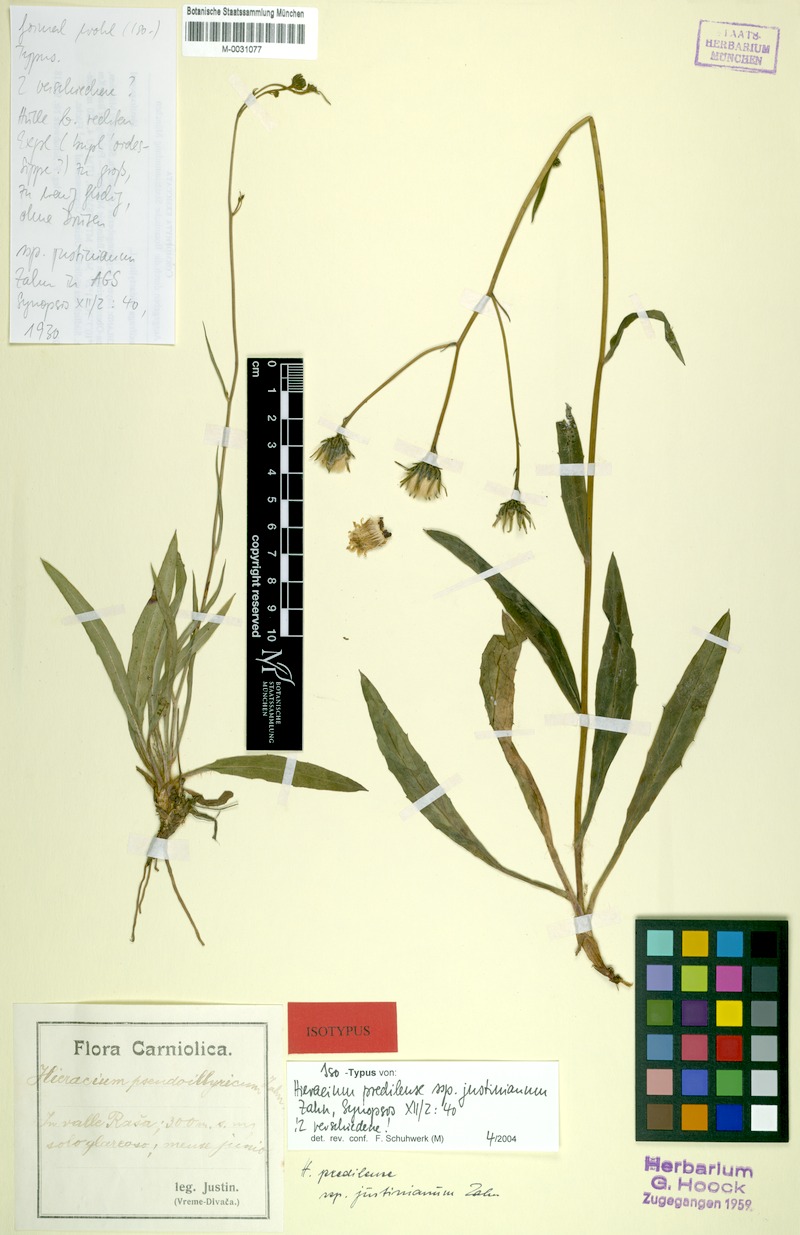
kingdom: Plantae
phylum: Tracheophyta
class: Magnoliopsida
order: Asterales
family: Asteraceae
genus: Hieracium
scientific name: Hieracium prediliense
